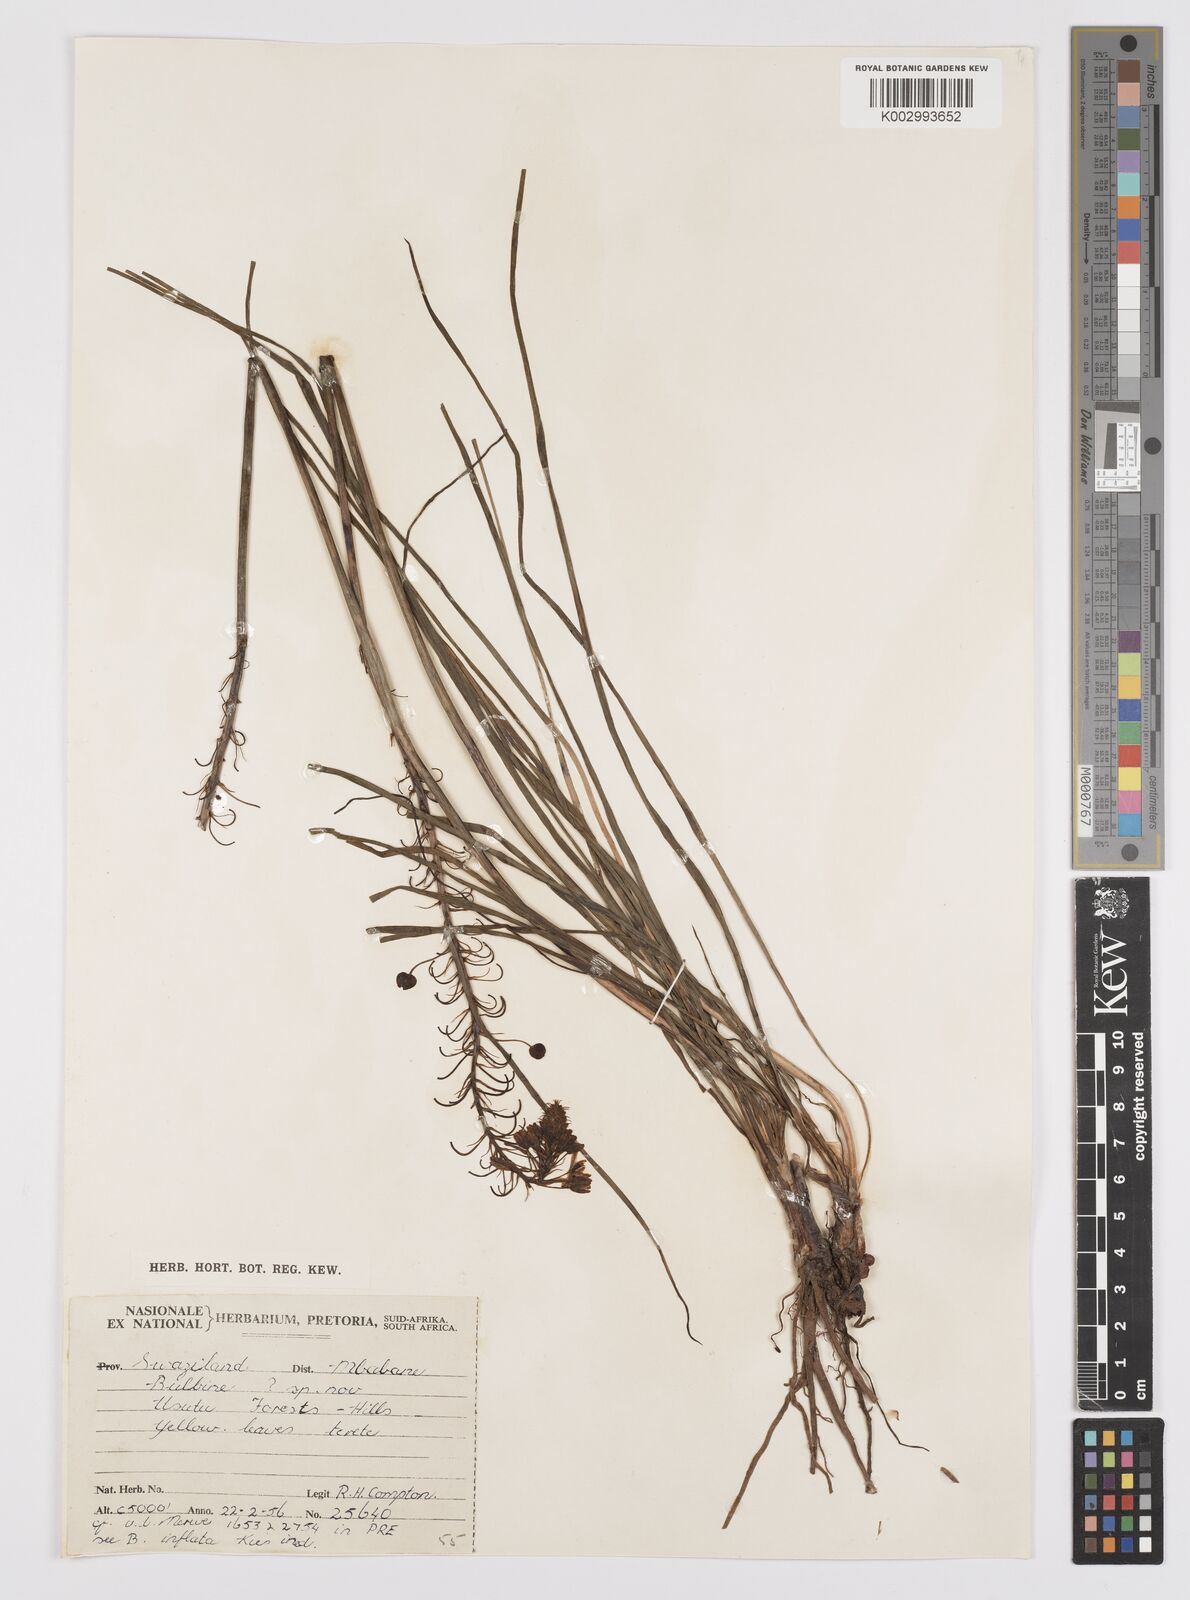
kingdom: Plantae
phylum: Tracheophyta
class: Liliopsida
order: Asparagales
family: Asphodelaceae
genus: Bulbine
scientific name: Bulbine capitata
